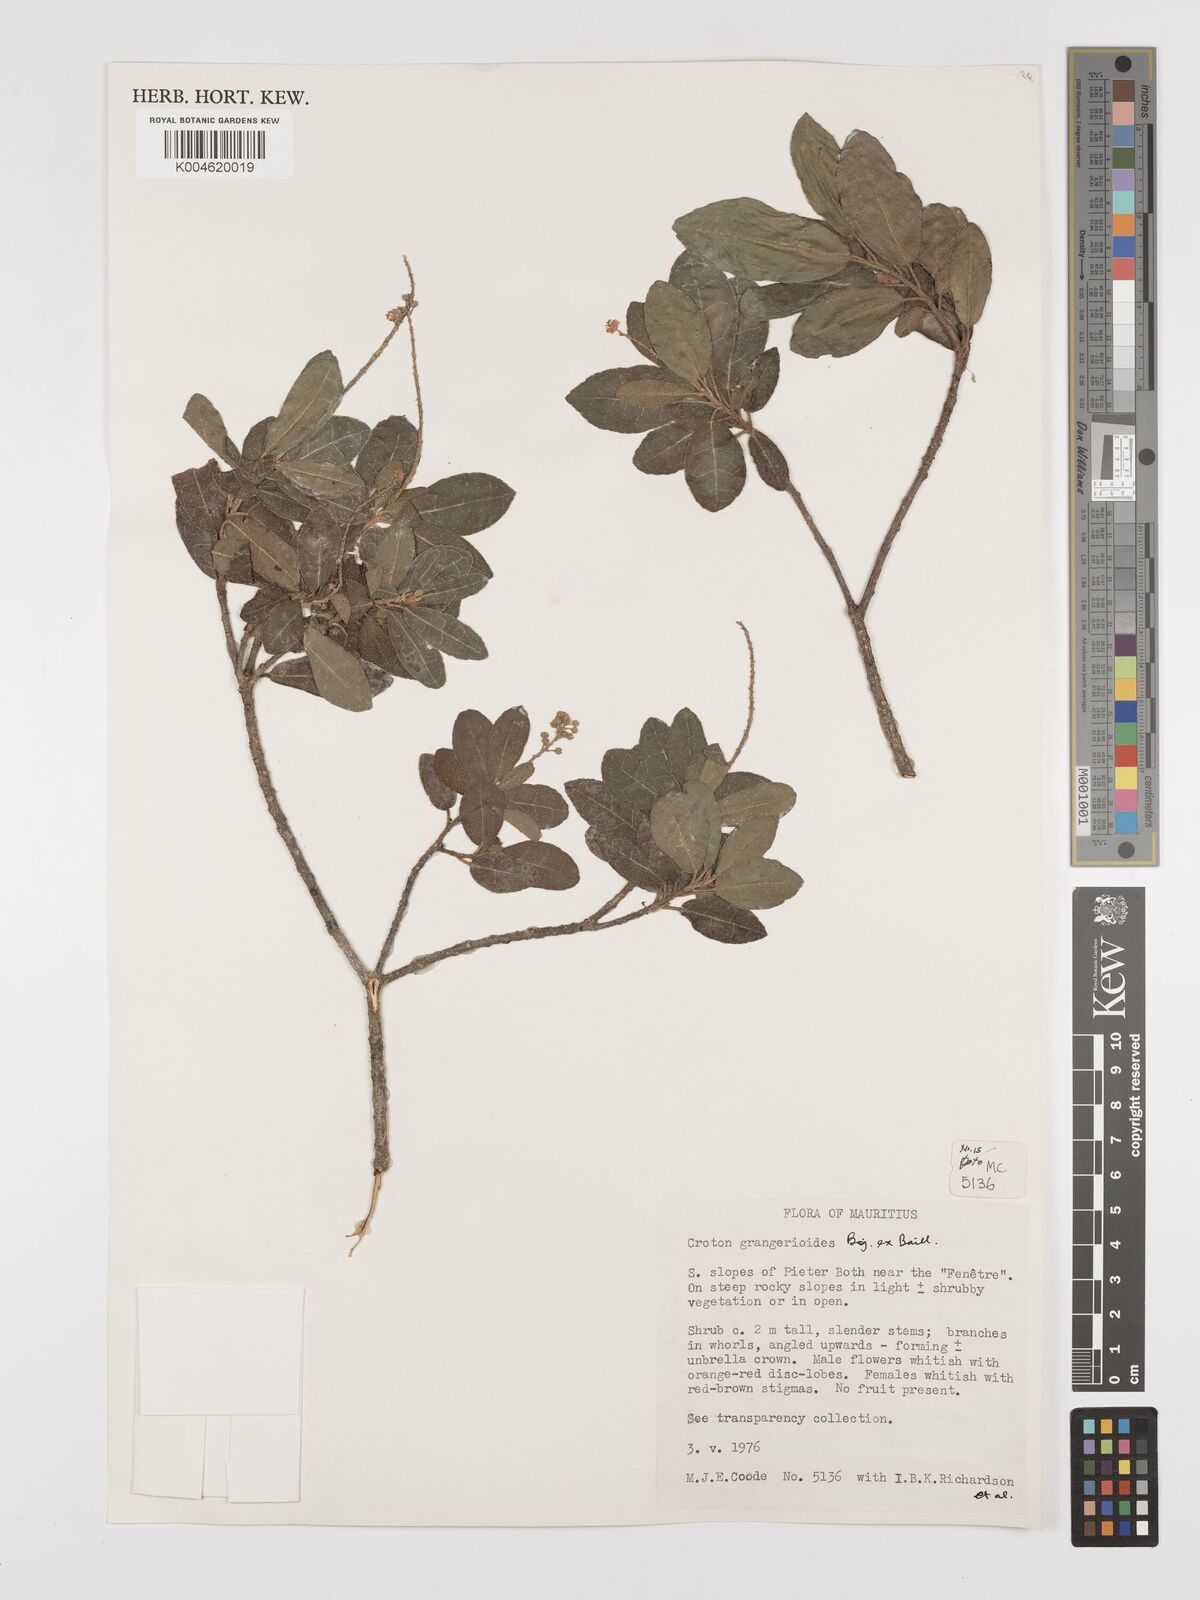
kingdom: Plantae
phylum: Tracheophyta
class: Magnoliopsida
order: Malpighiales
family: Euphorbiaceae
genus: Croton
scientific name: Croton grangerioides
